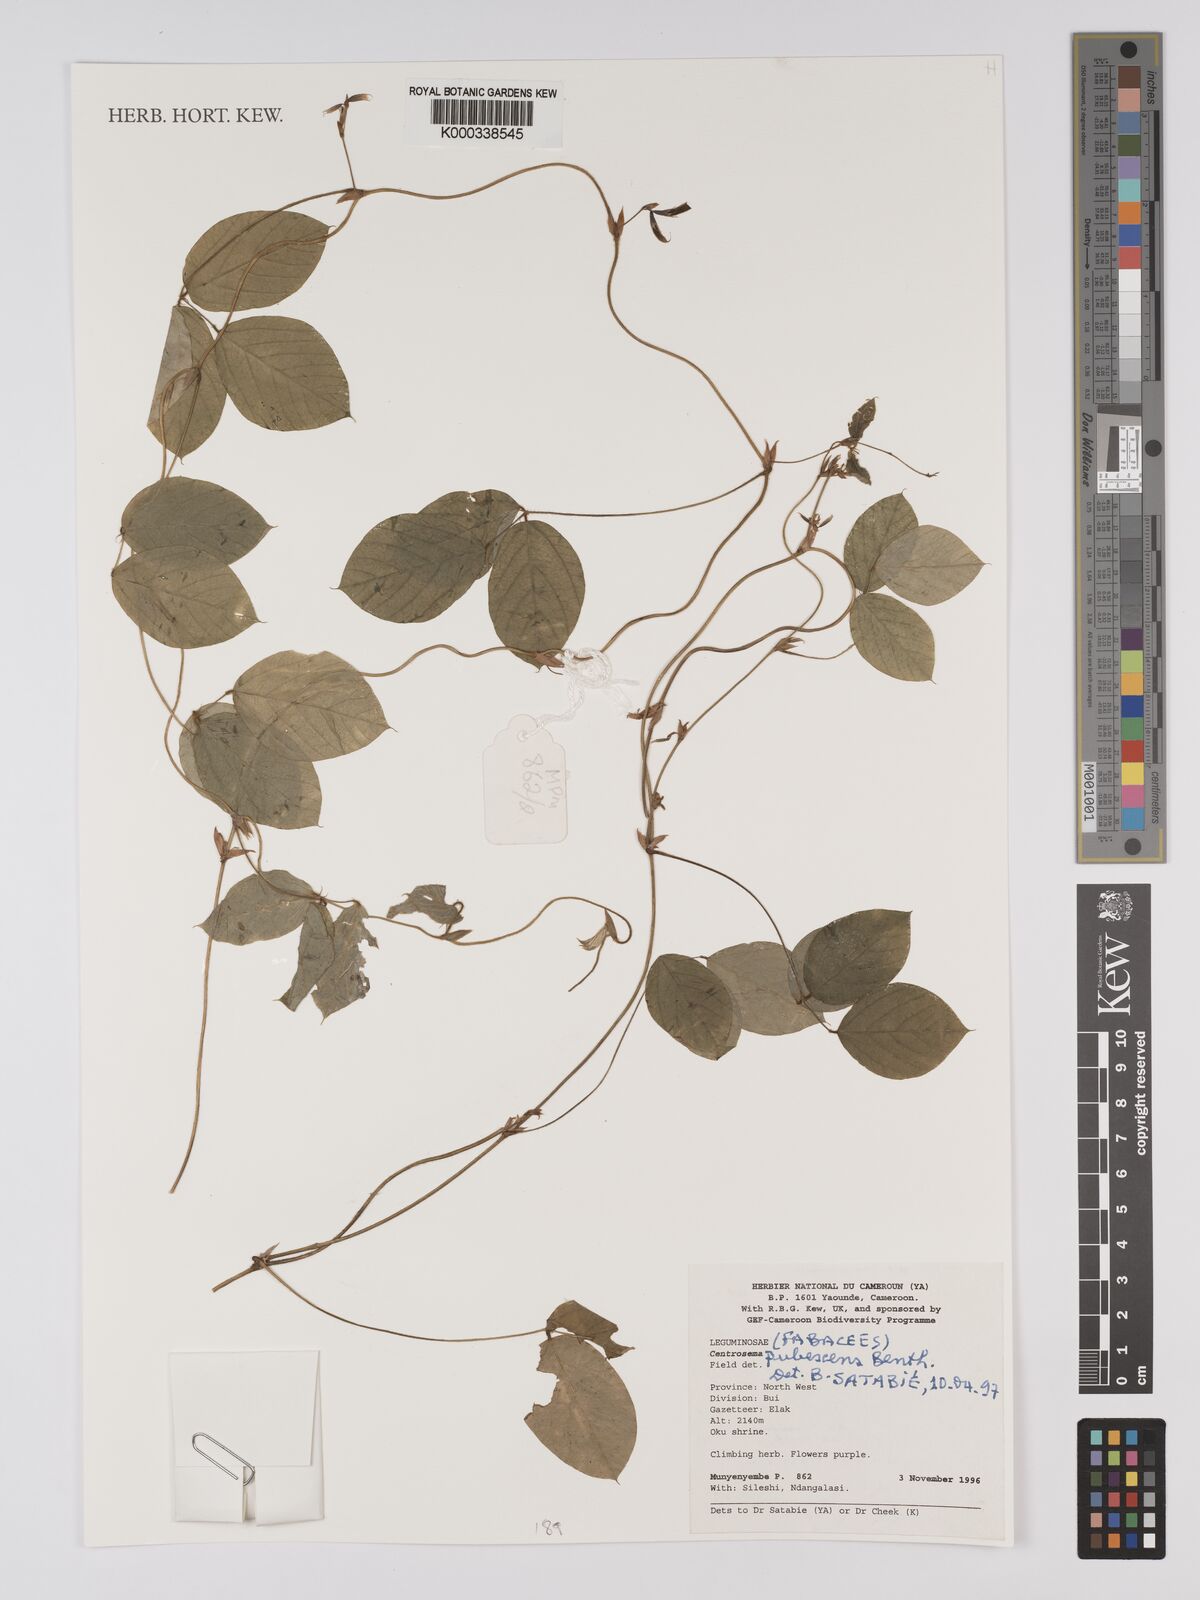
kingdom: Plantae
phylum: Tracheophyta
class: Magnoliopsida
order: Fabales
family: Fabaceae
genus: Centrosema
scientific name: Centrosema pubescens
